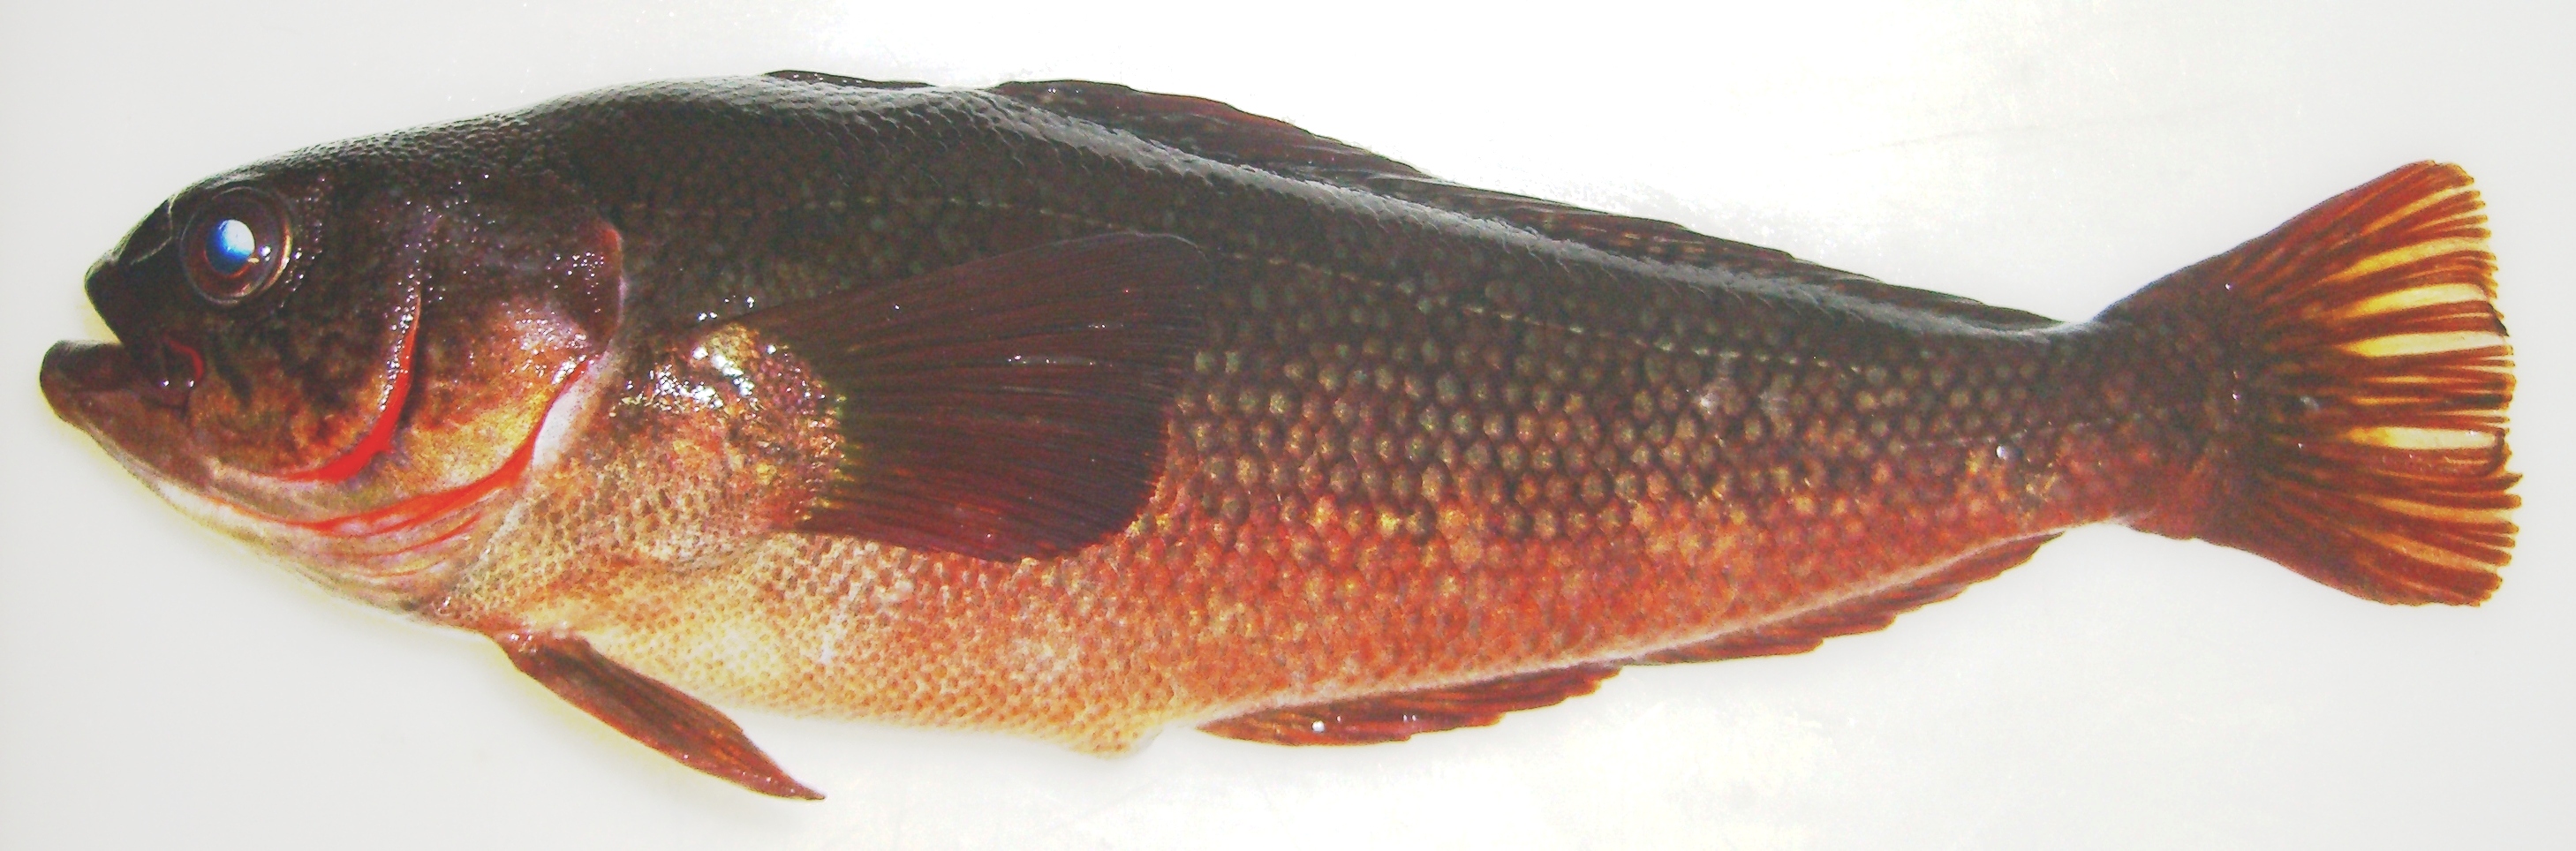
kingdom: Animalia
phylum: Chordata
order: Perciformes
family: Nototheniidae
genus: Paranotothenia
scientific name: Paranotothenia magellanica
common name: Magellanic rockcod
